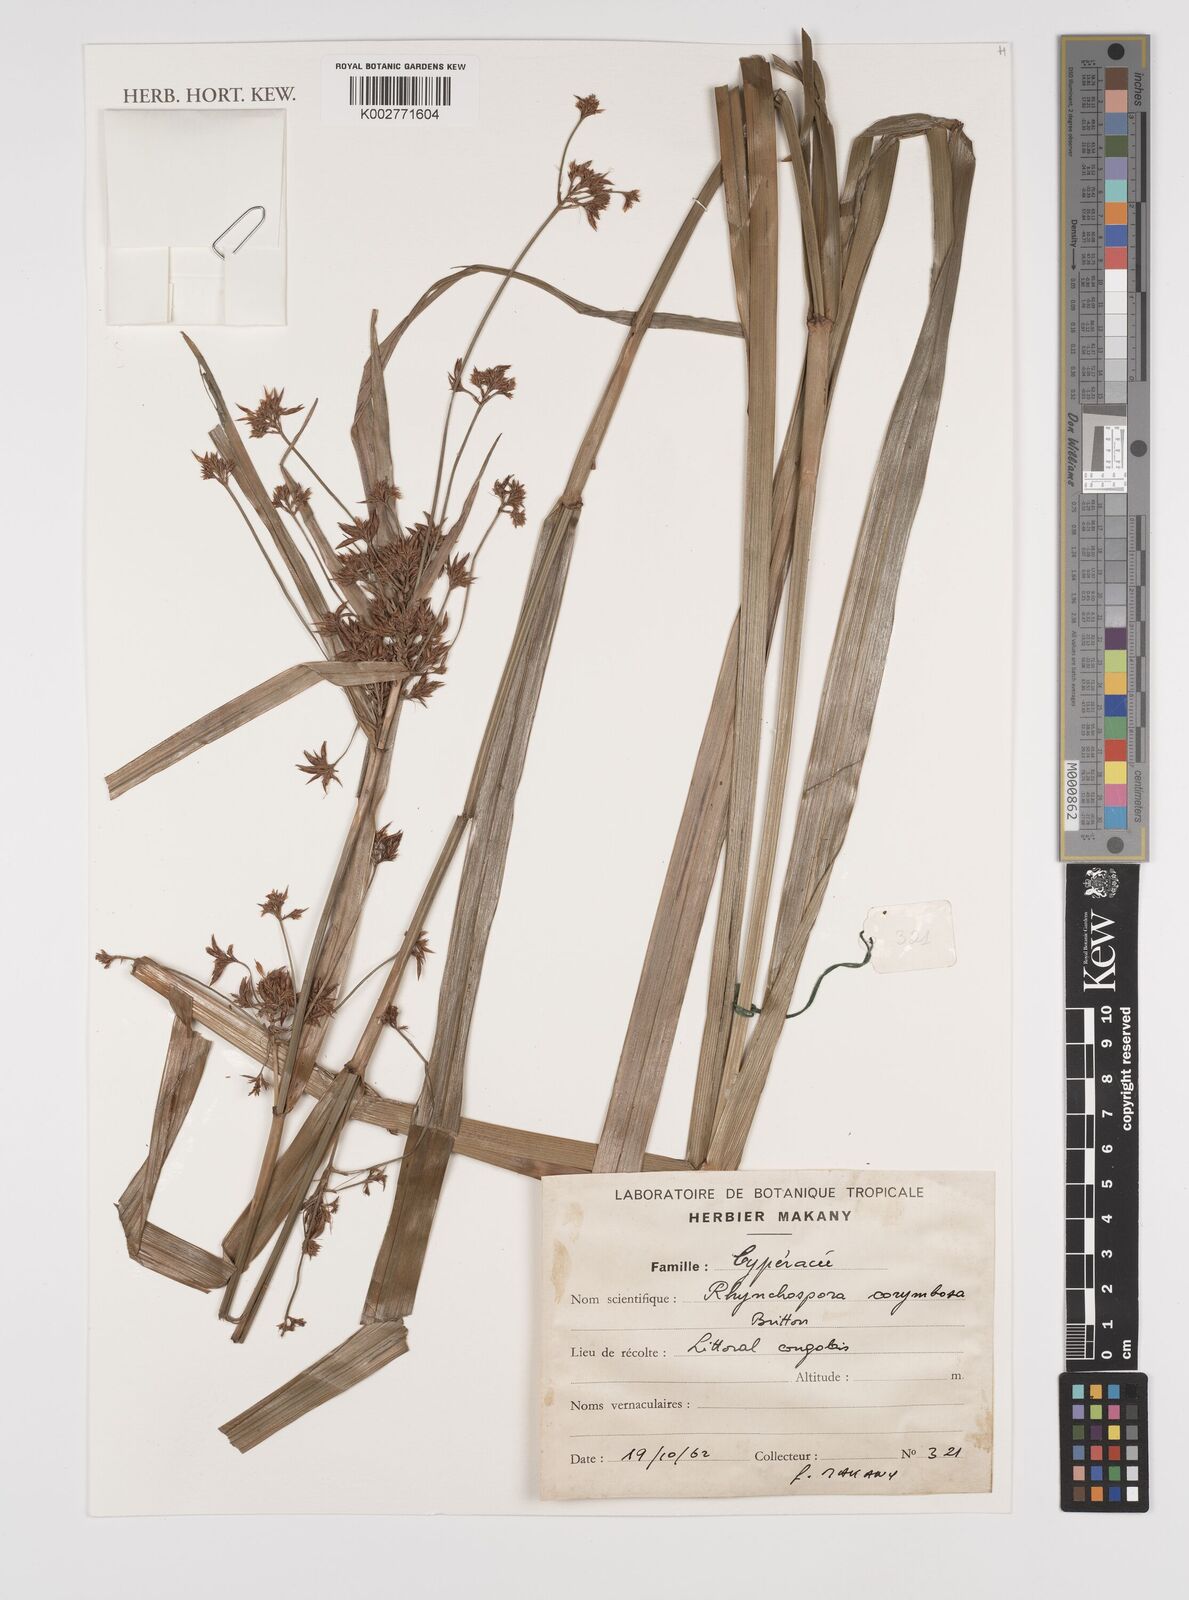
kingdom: Plantae
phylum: Tracheophyta
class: Liliopsida
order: Poales
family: Cyperaceae
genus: Rhynchospora
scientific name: Rhynchospora corymbosa
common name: Golden beak sedge
